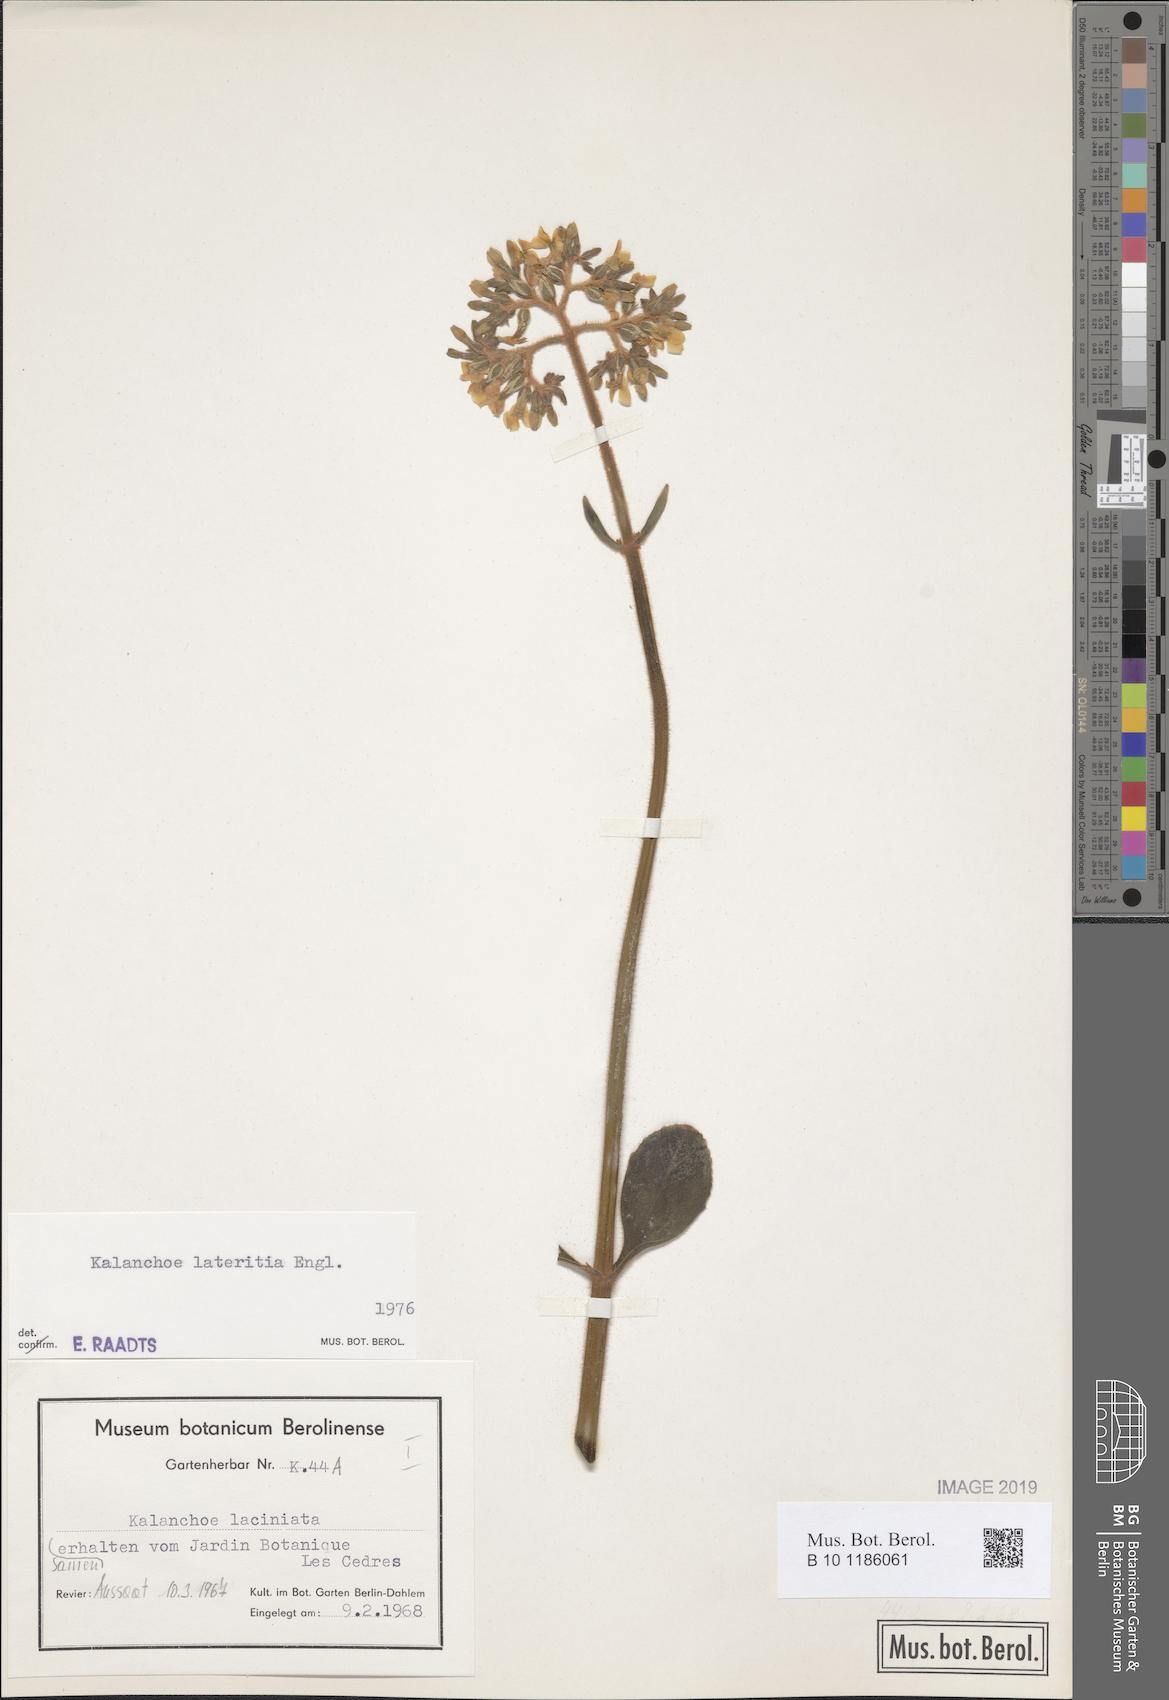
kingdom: Plantae
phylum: Tracheophyta
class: Magnoliopsida
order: Saxifragales
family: Crassulaceae
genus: Kalanchoe
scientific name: Kalanchoe lateritia
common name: Kalanchoe
